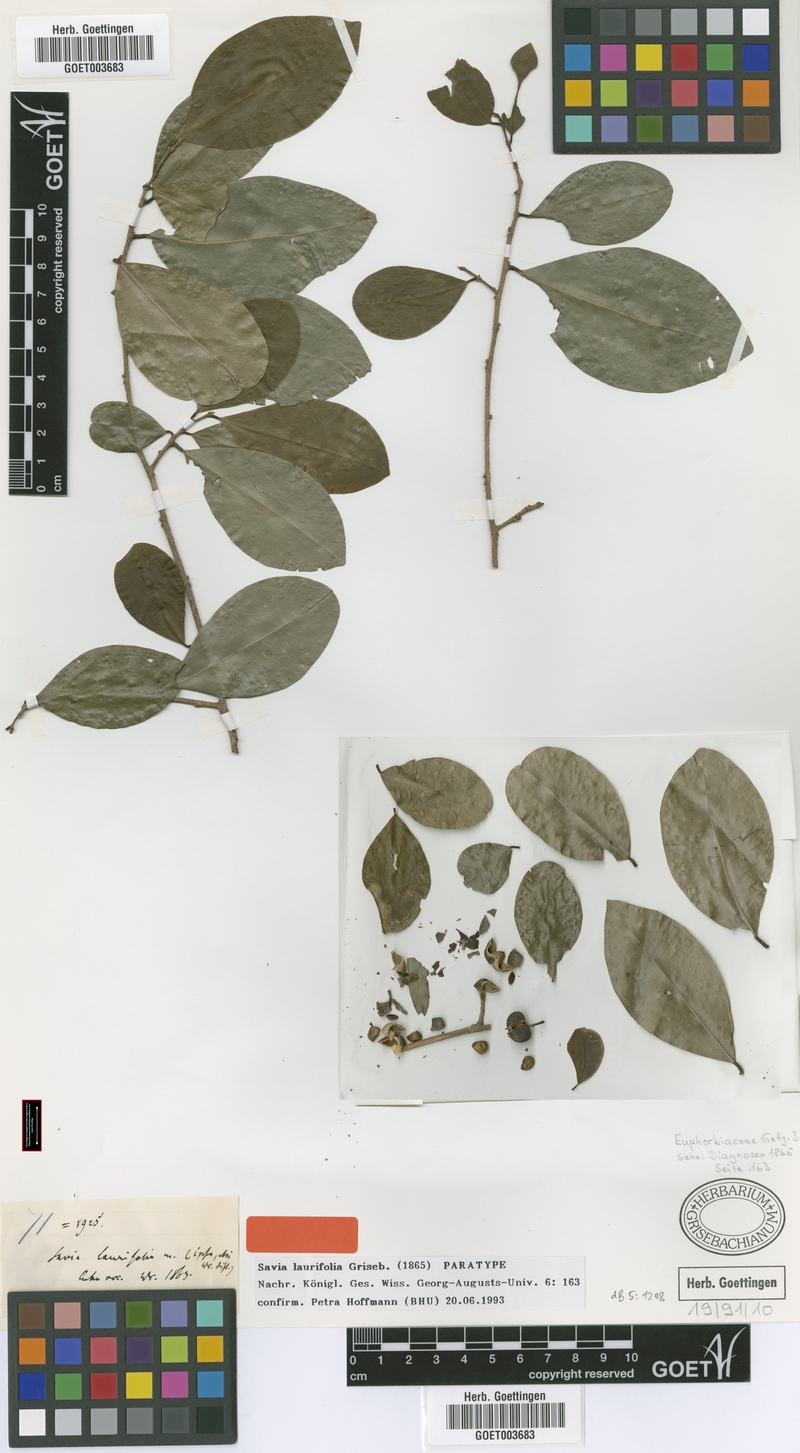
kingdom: Plantae
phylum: Tracheophyta
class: Magnoliopsida
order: Malpighiales
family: Phyllanthaceae
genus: Heterosavia
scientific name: Heterosavia laurifolia
